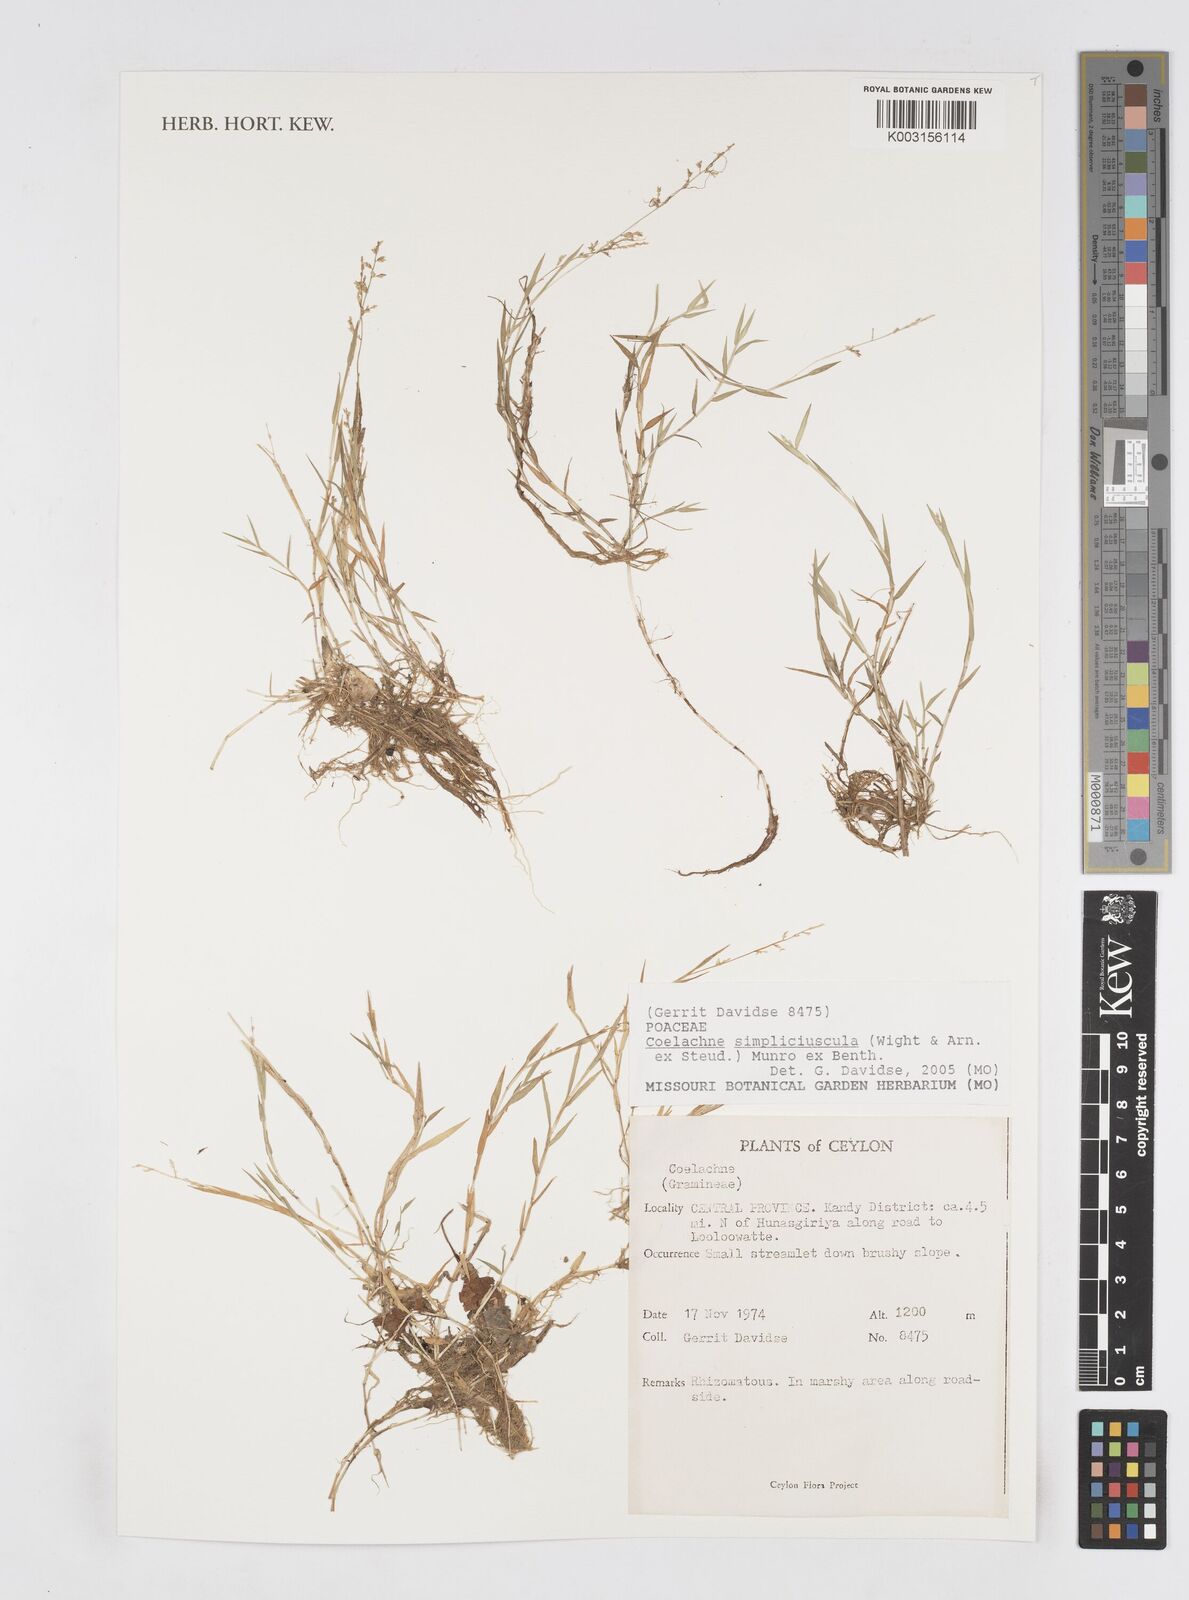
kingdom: Plantae
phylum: Tracheophyta
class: Liliopsida
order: Poales
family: Poaceae
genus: Coelachne
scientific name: Coelachne simpliciuscula
